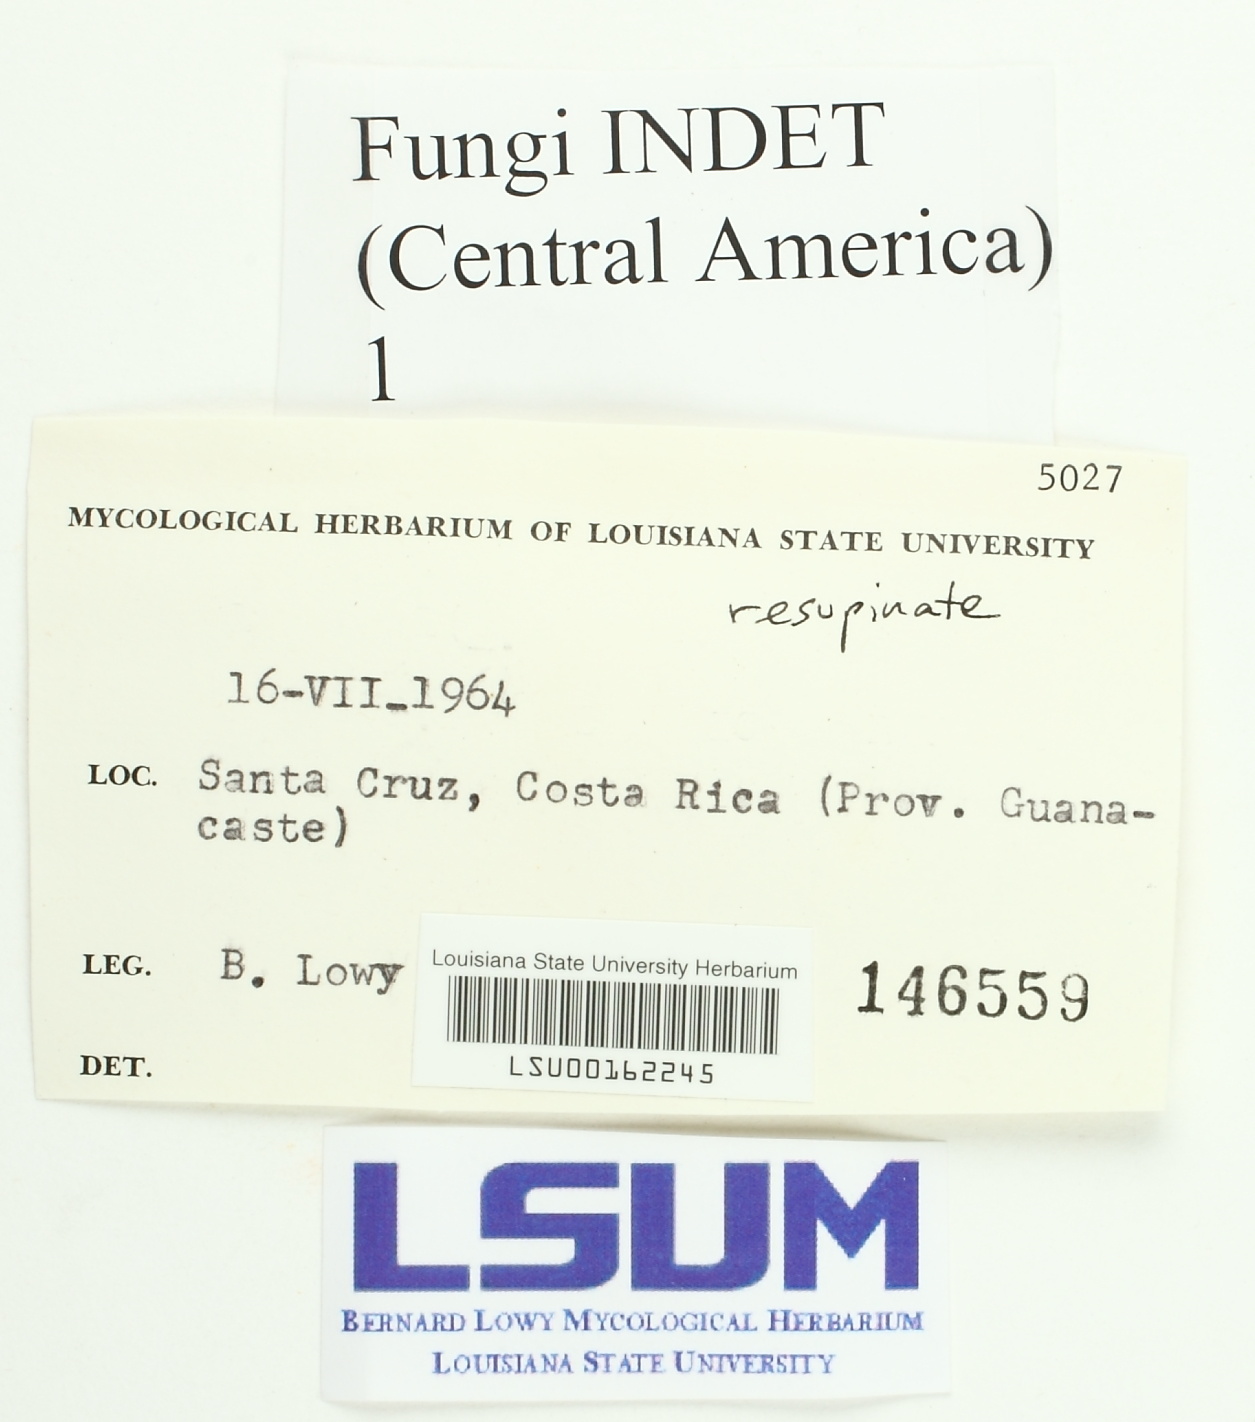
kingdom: Fungi
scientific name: Fungi
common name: Fungi
